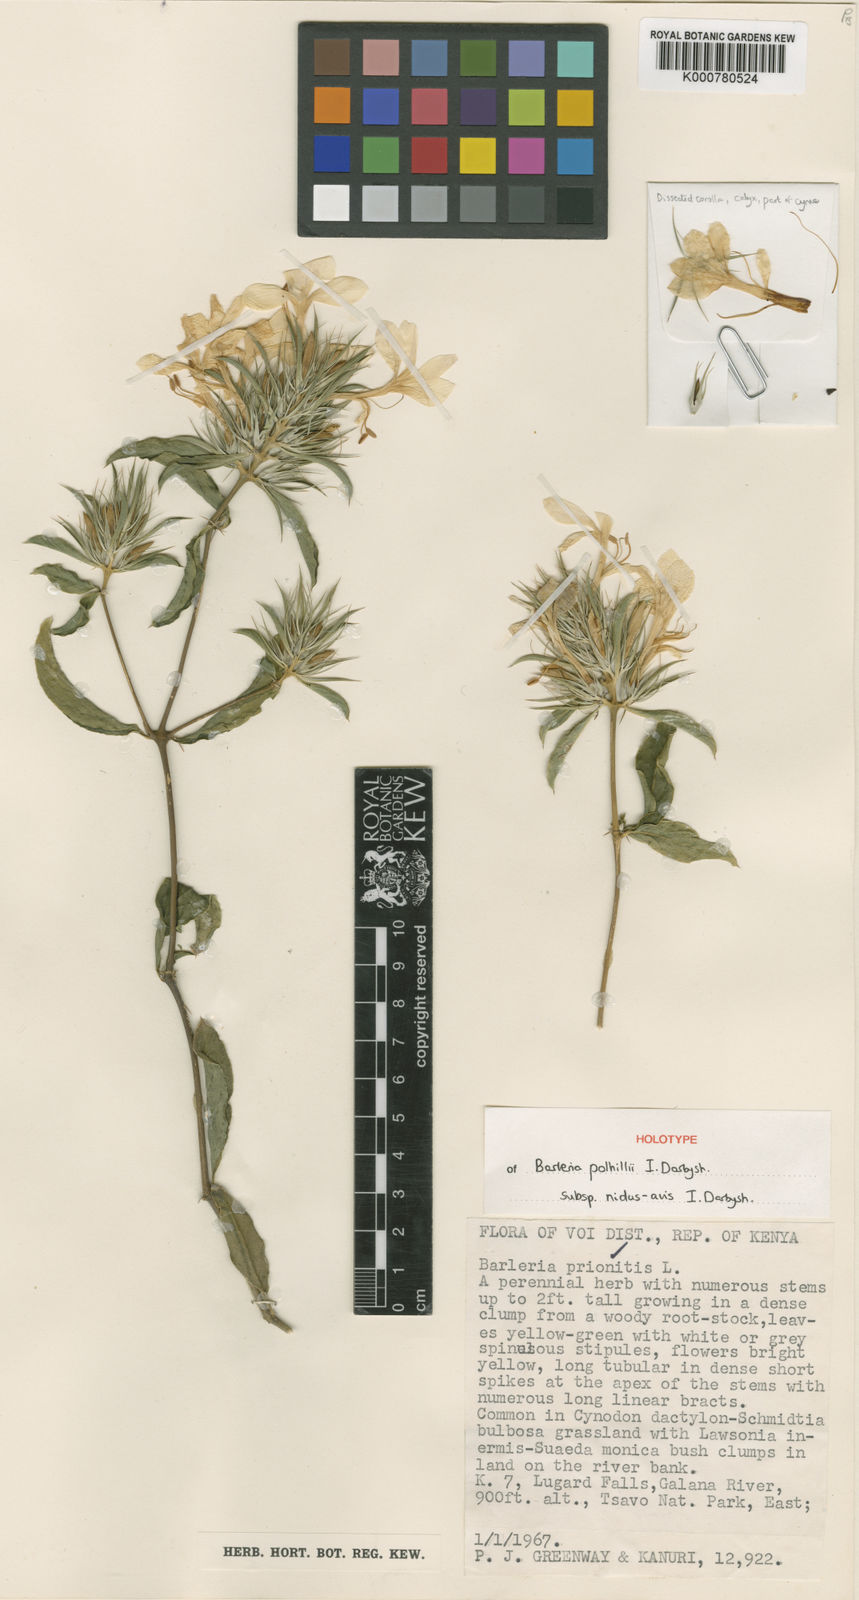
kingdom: Plantae
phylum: Tracheophyta
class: Magnoliopsida
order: Lamiales
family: Acanthaceae
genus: Barleria
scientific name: Barleria polhillii
